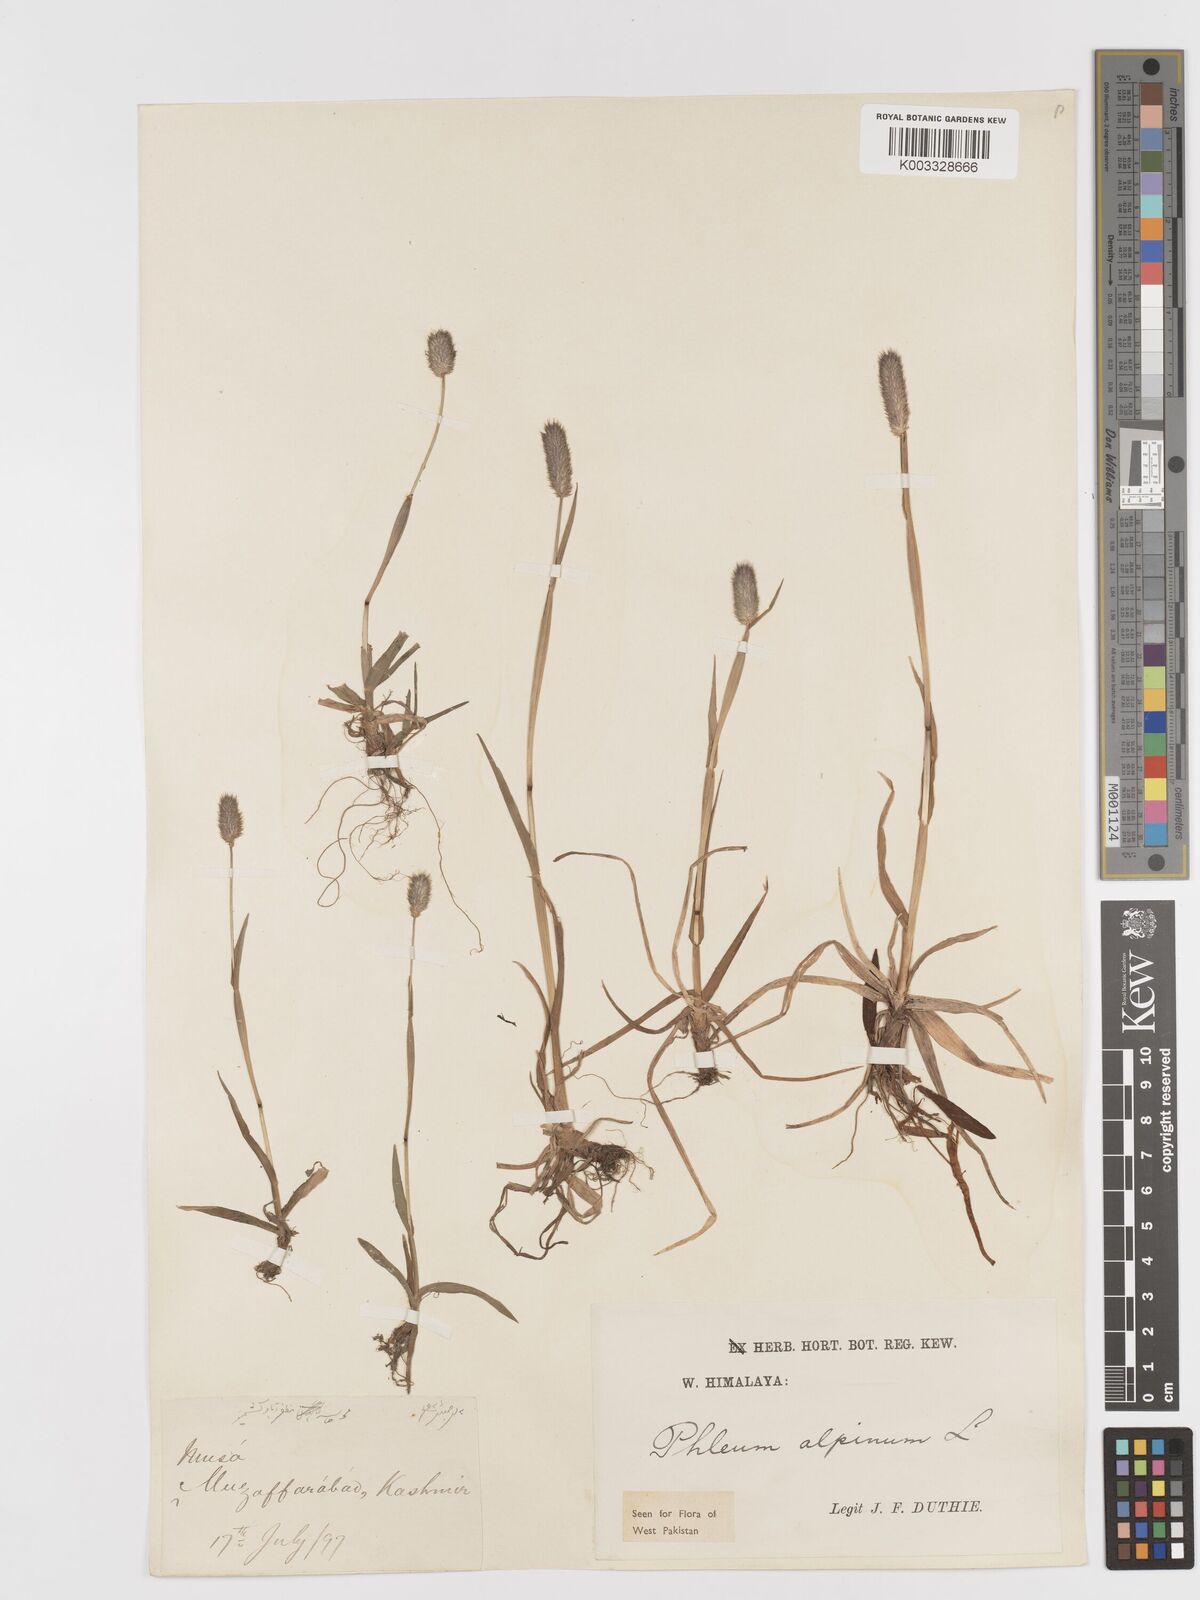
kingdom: Plantae
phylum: Tracheophyta
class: Liliopsida
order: Poales
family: Poaceae
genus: Phleum
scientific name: Phleum alpinum
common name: Alpine cat's-tail
